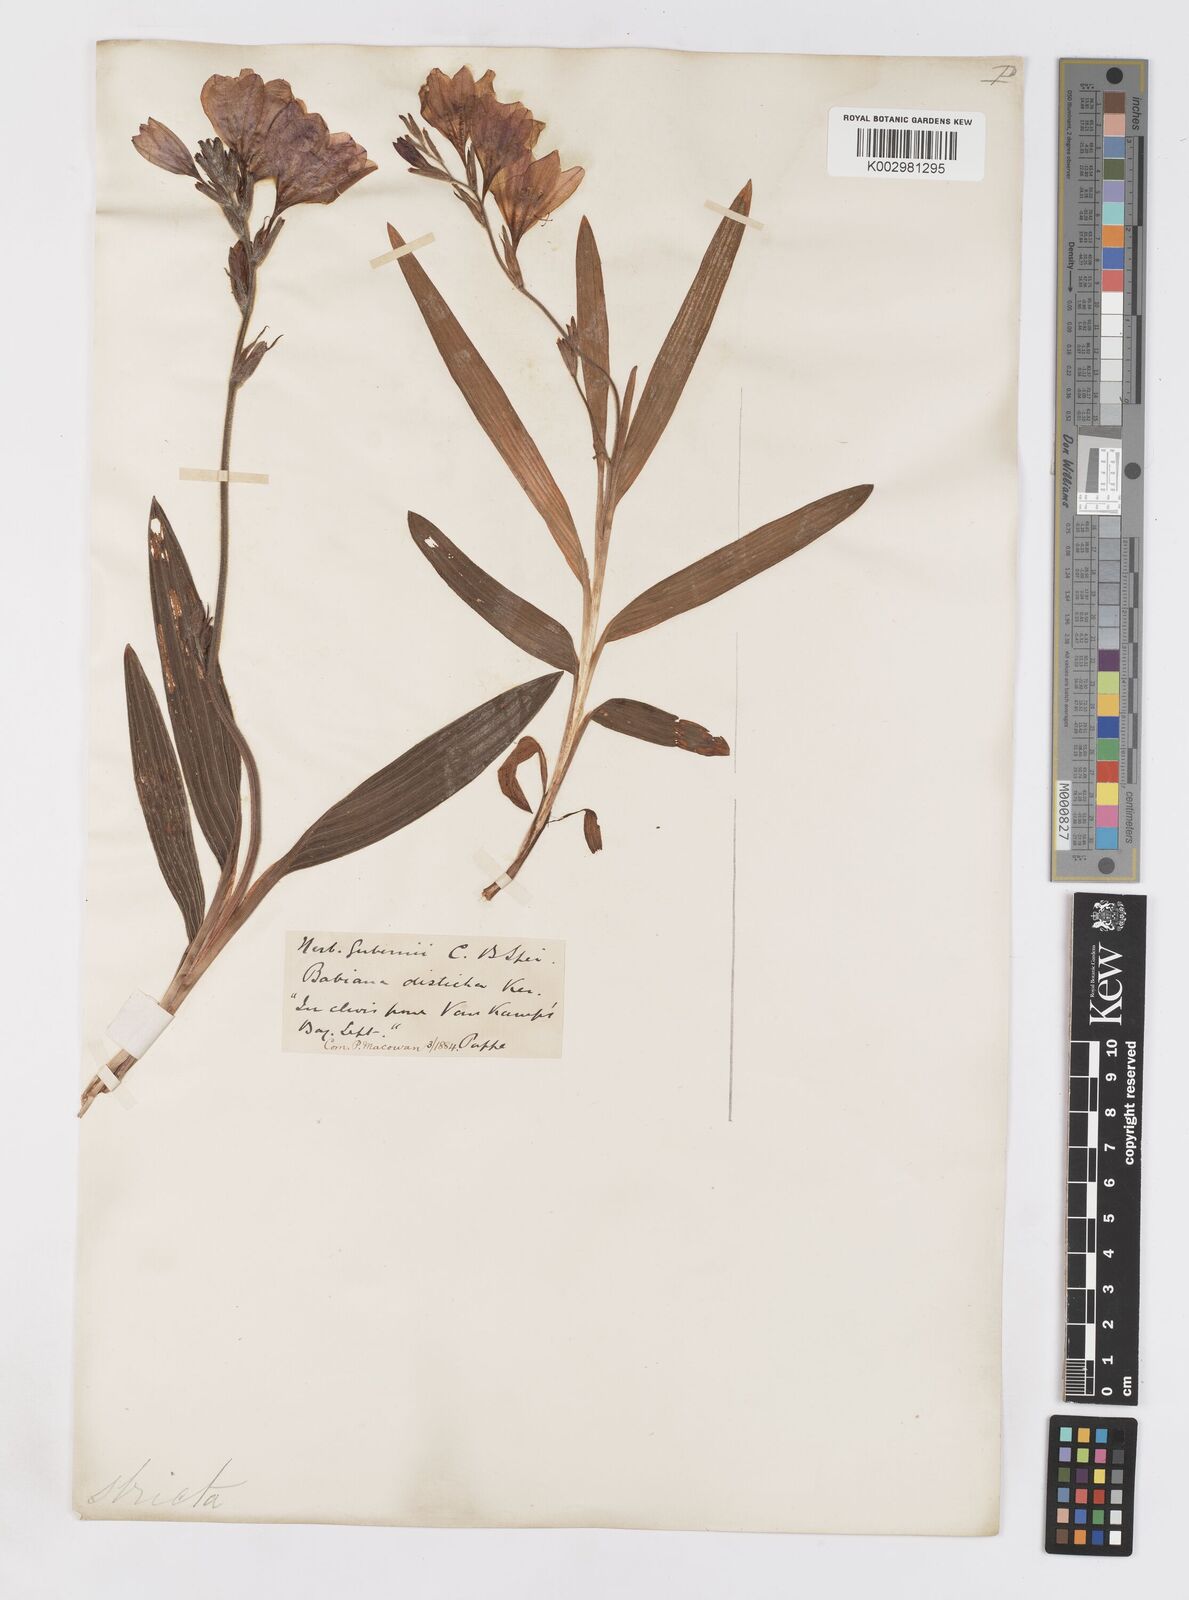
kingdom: Plantae
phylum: Tracheophyta
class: Liliopsida
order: Asparagales
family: Iridaceae
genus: Babiana
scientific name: Babiana nervosa
